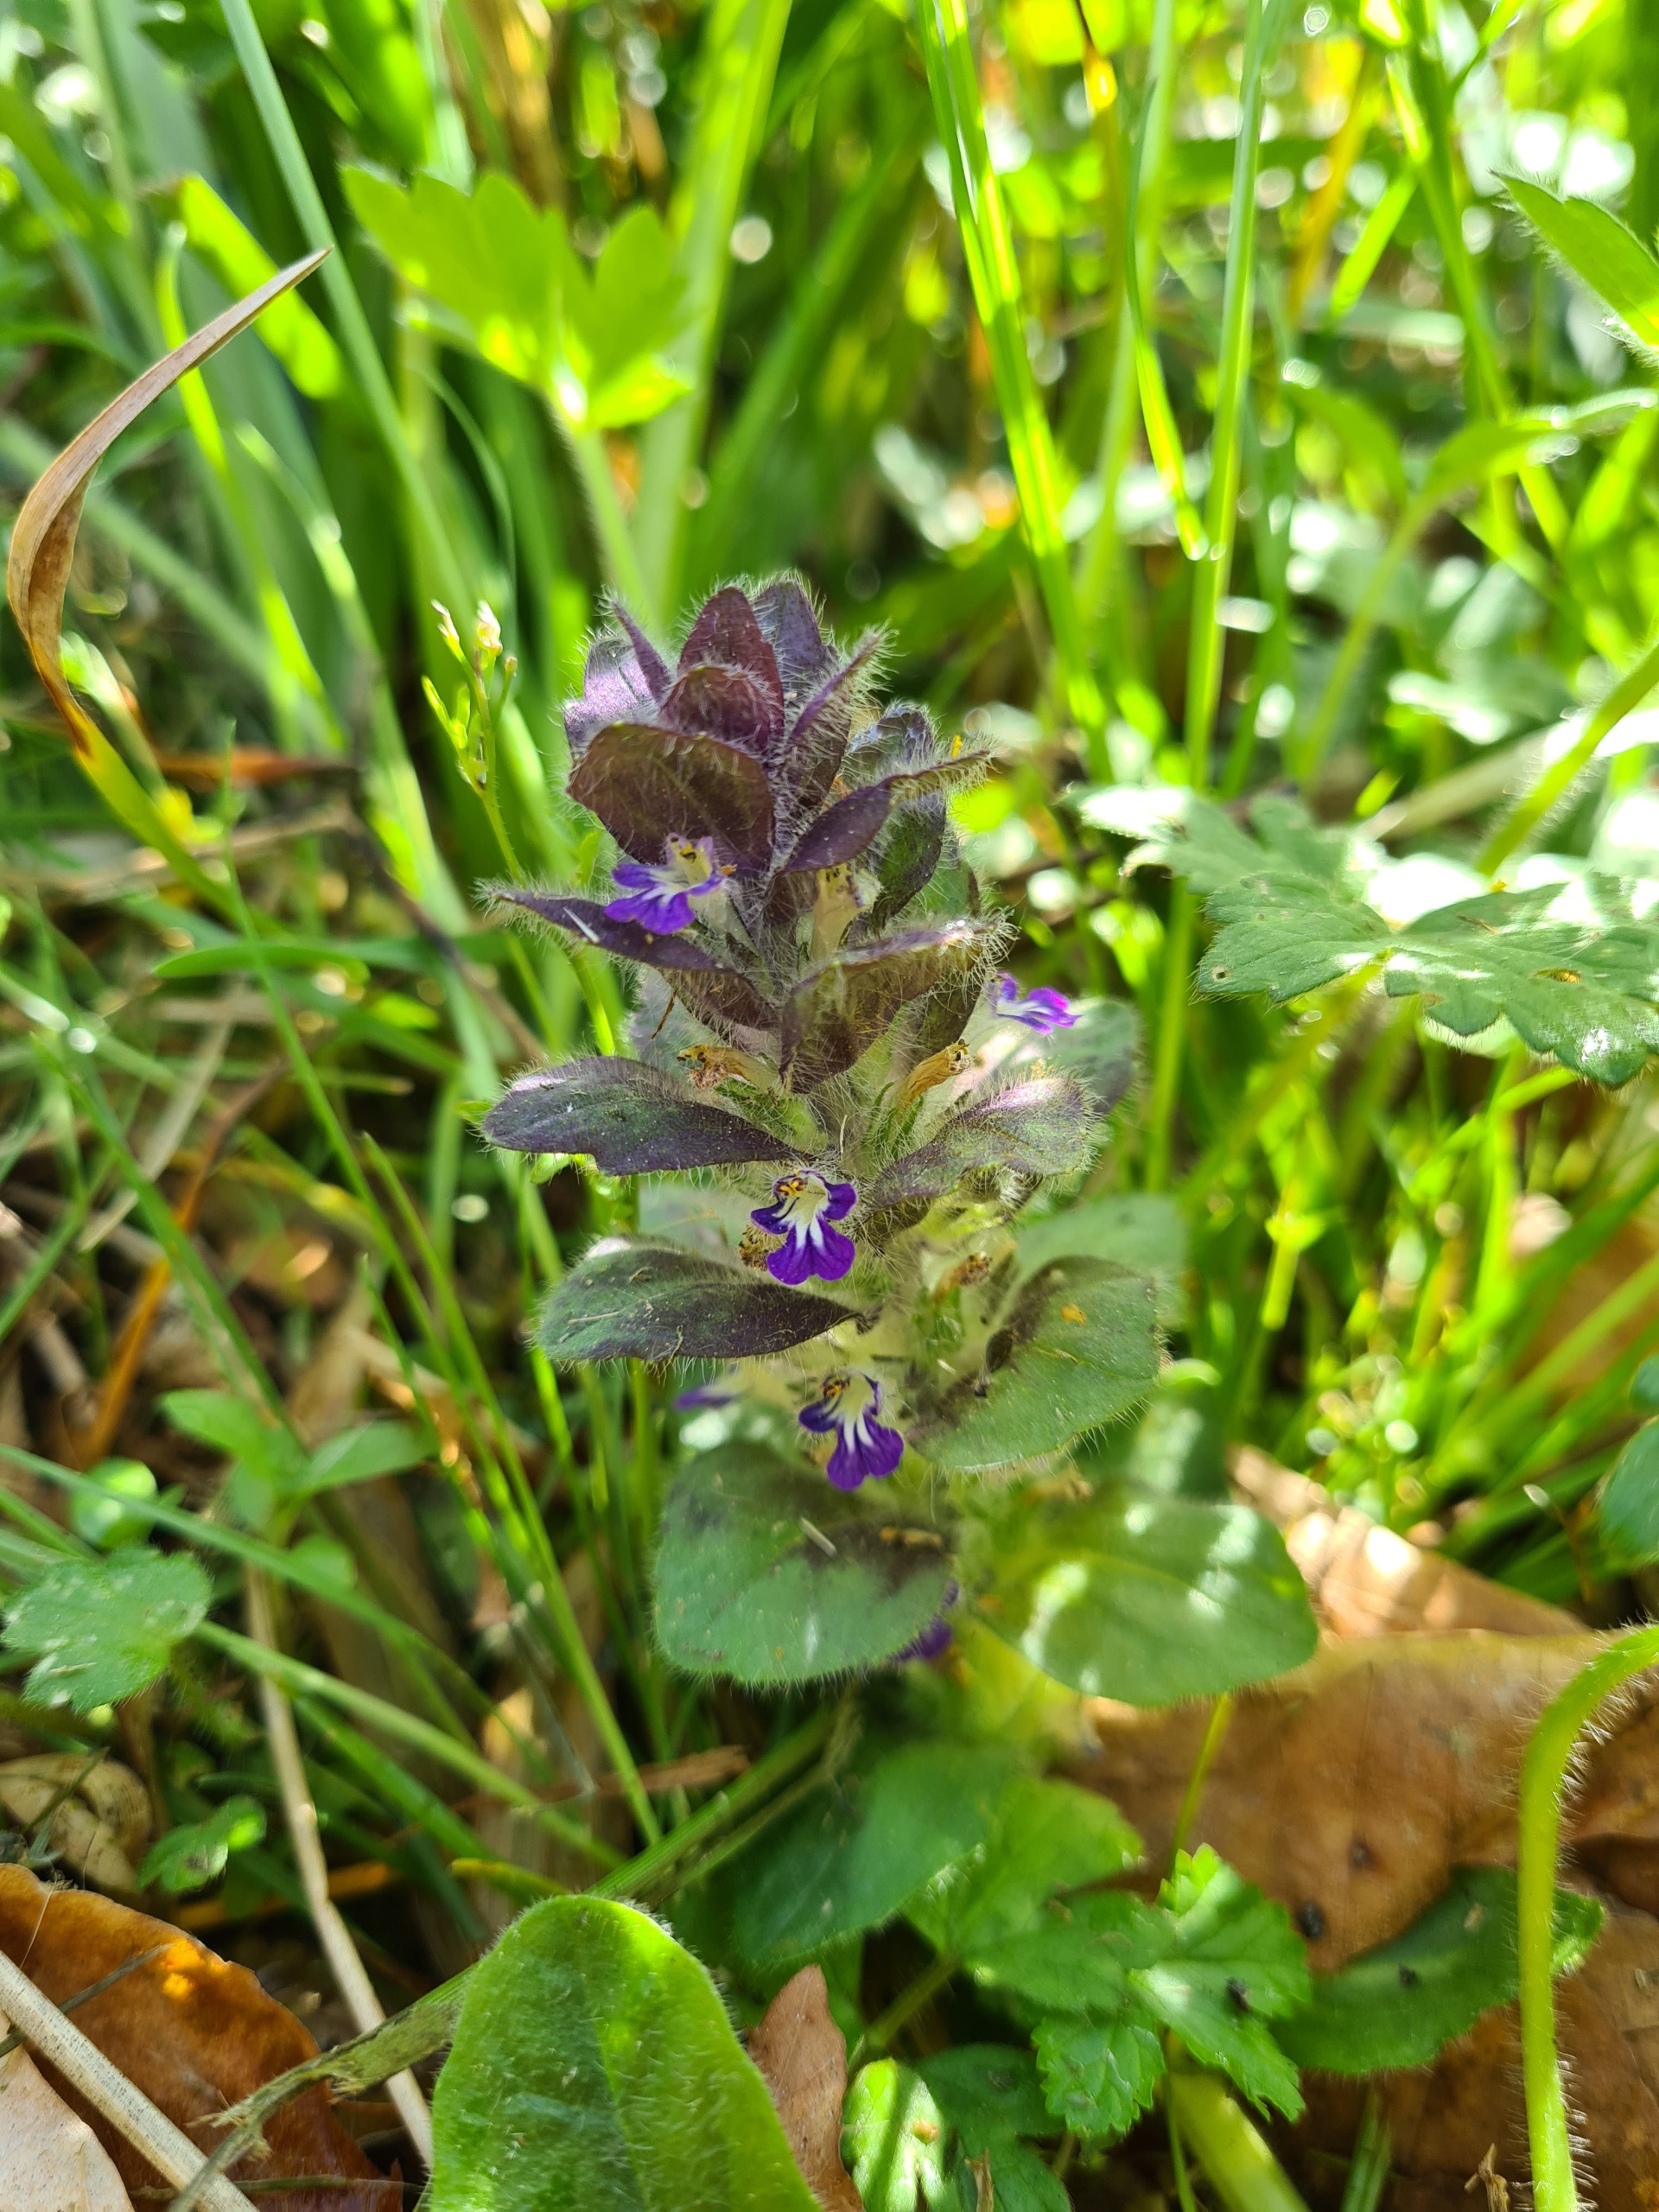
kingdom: Plantae
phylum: Tracheophyta
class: Magnoliopsida
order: Lamiales
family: Lamiaceae
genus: Ajuga
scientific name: Ajuga pyramidalis
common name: Pyramide-læbeløs
